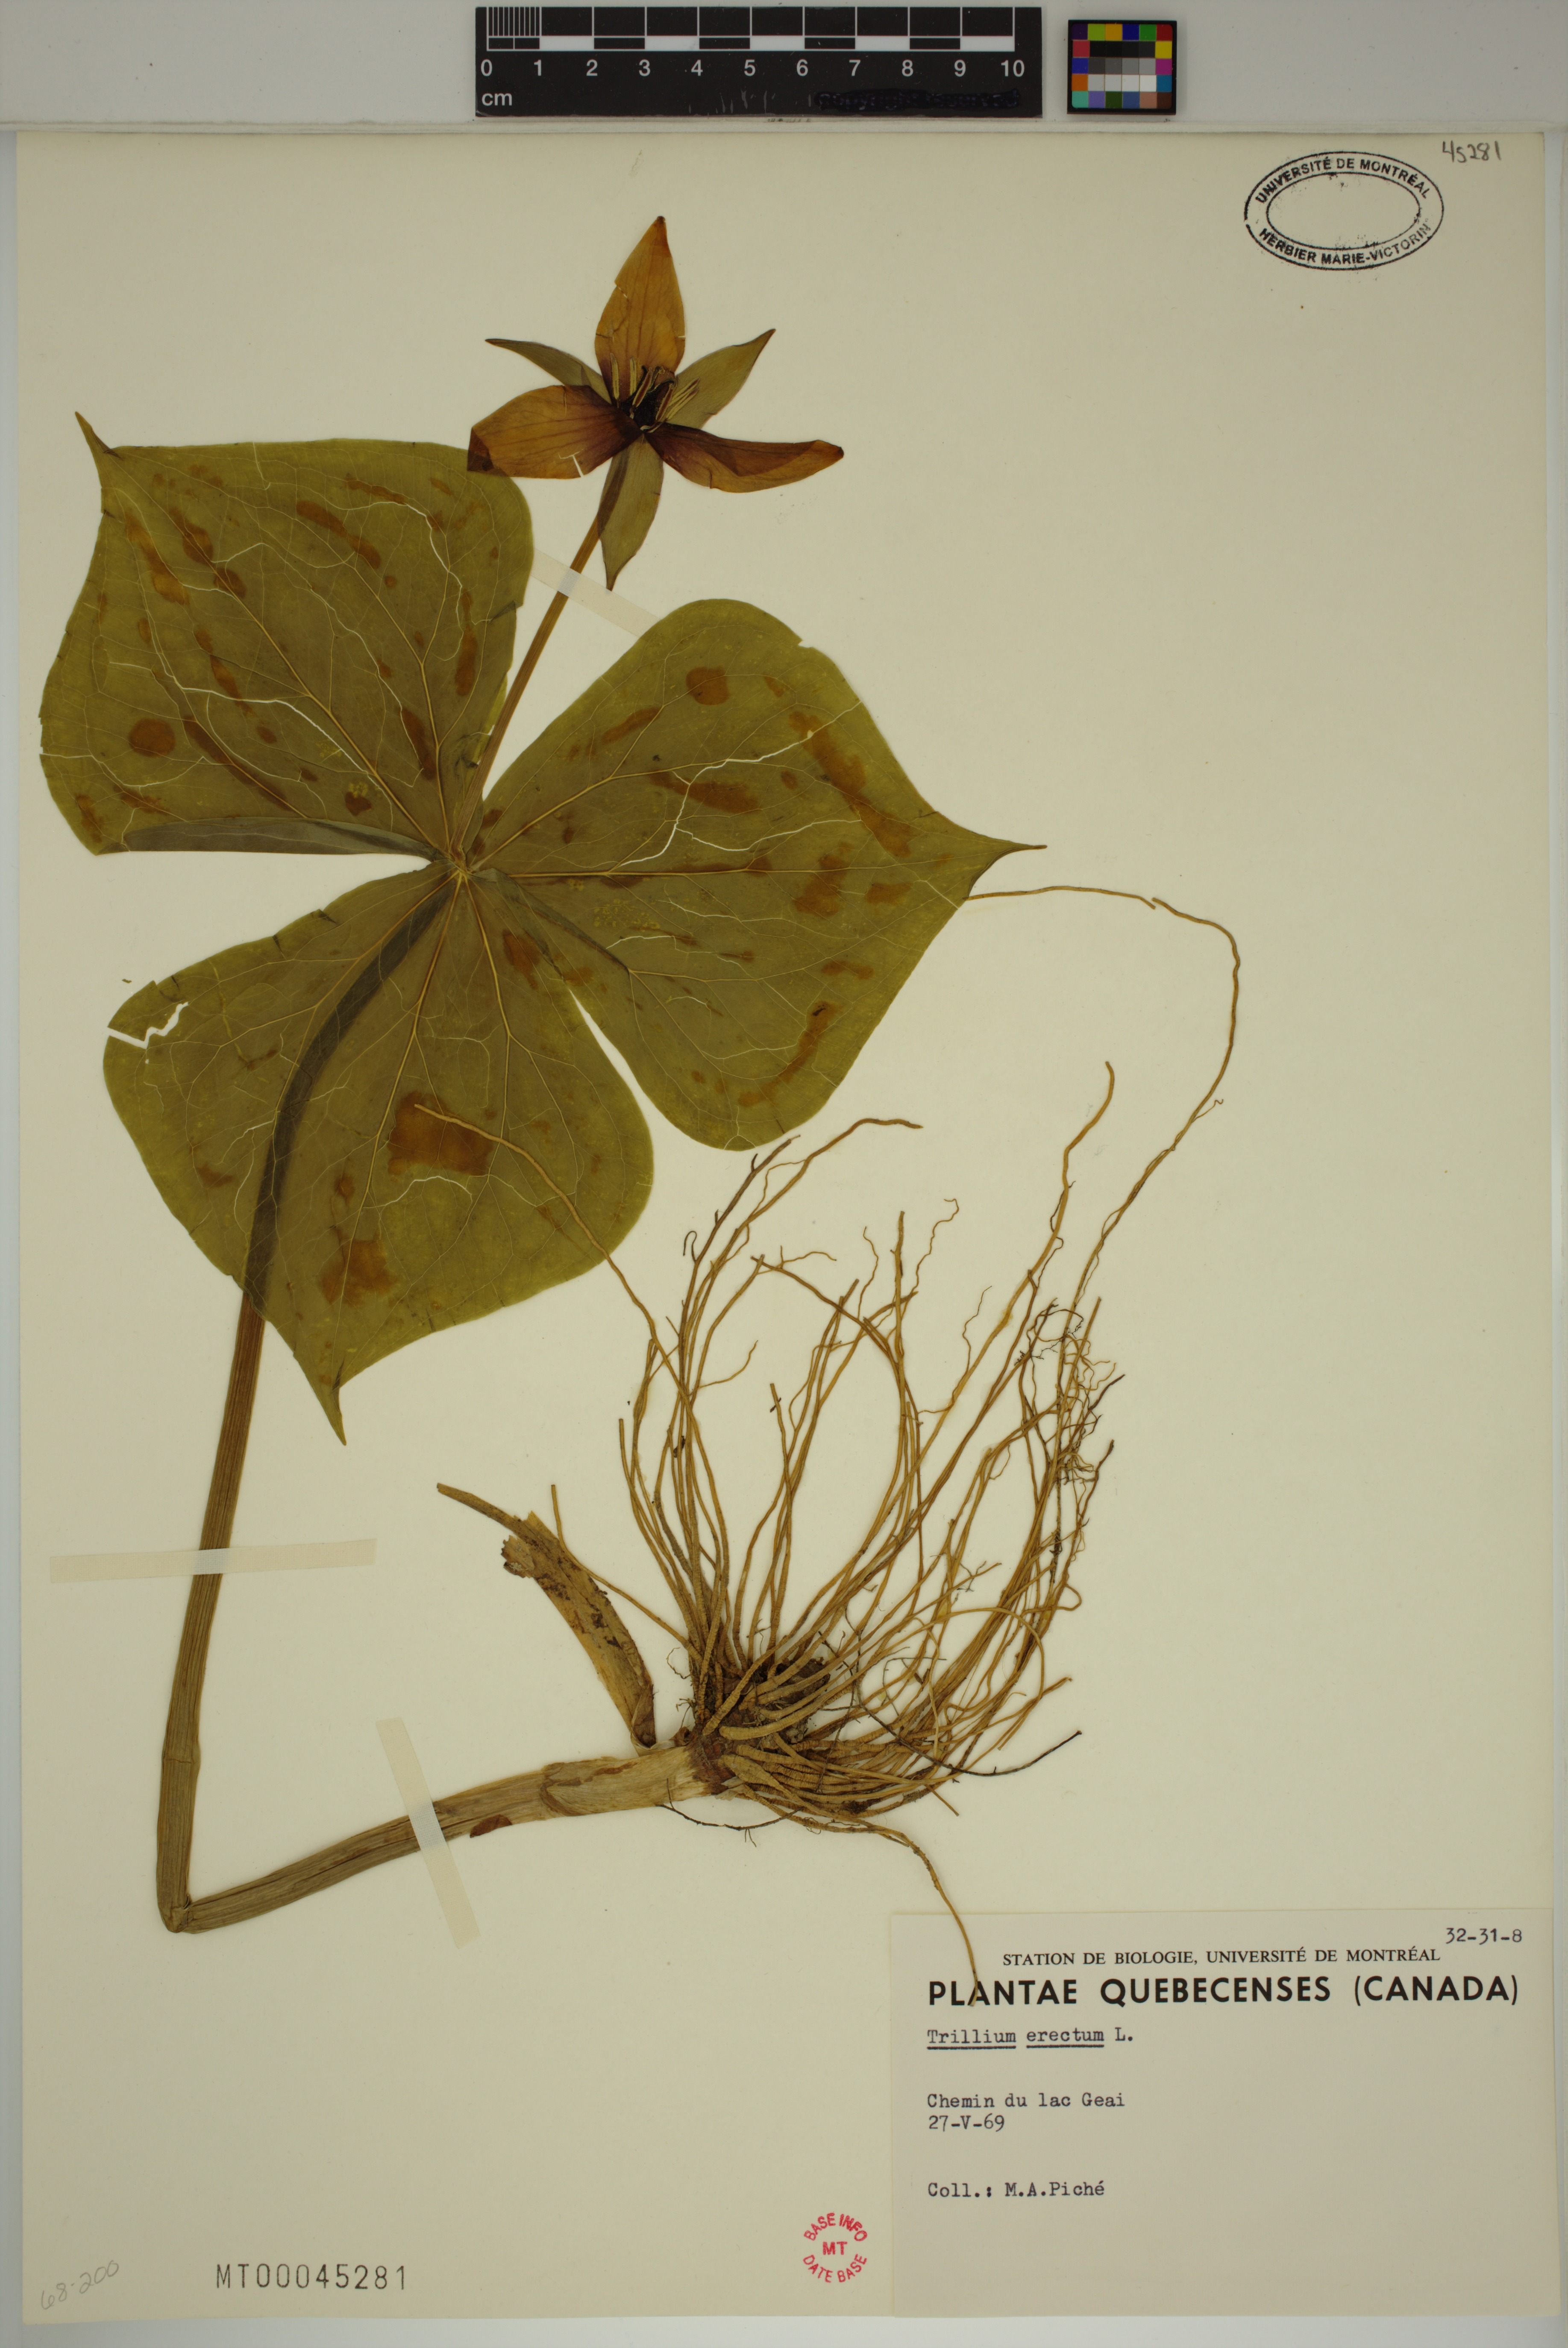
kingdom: Plantae
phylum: Tracheophyta
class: Liliopsida
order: Liliales
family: Melanthiaceae
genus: Trillium
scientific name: Trillium erectum
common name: Purple trillium
